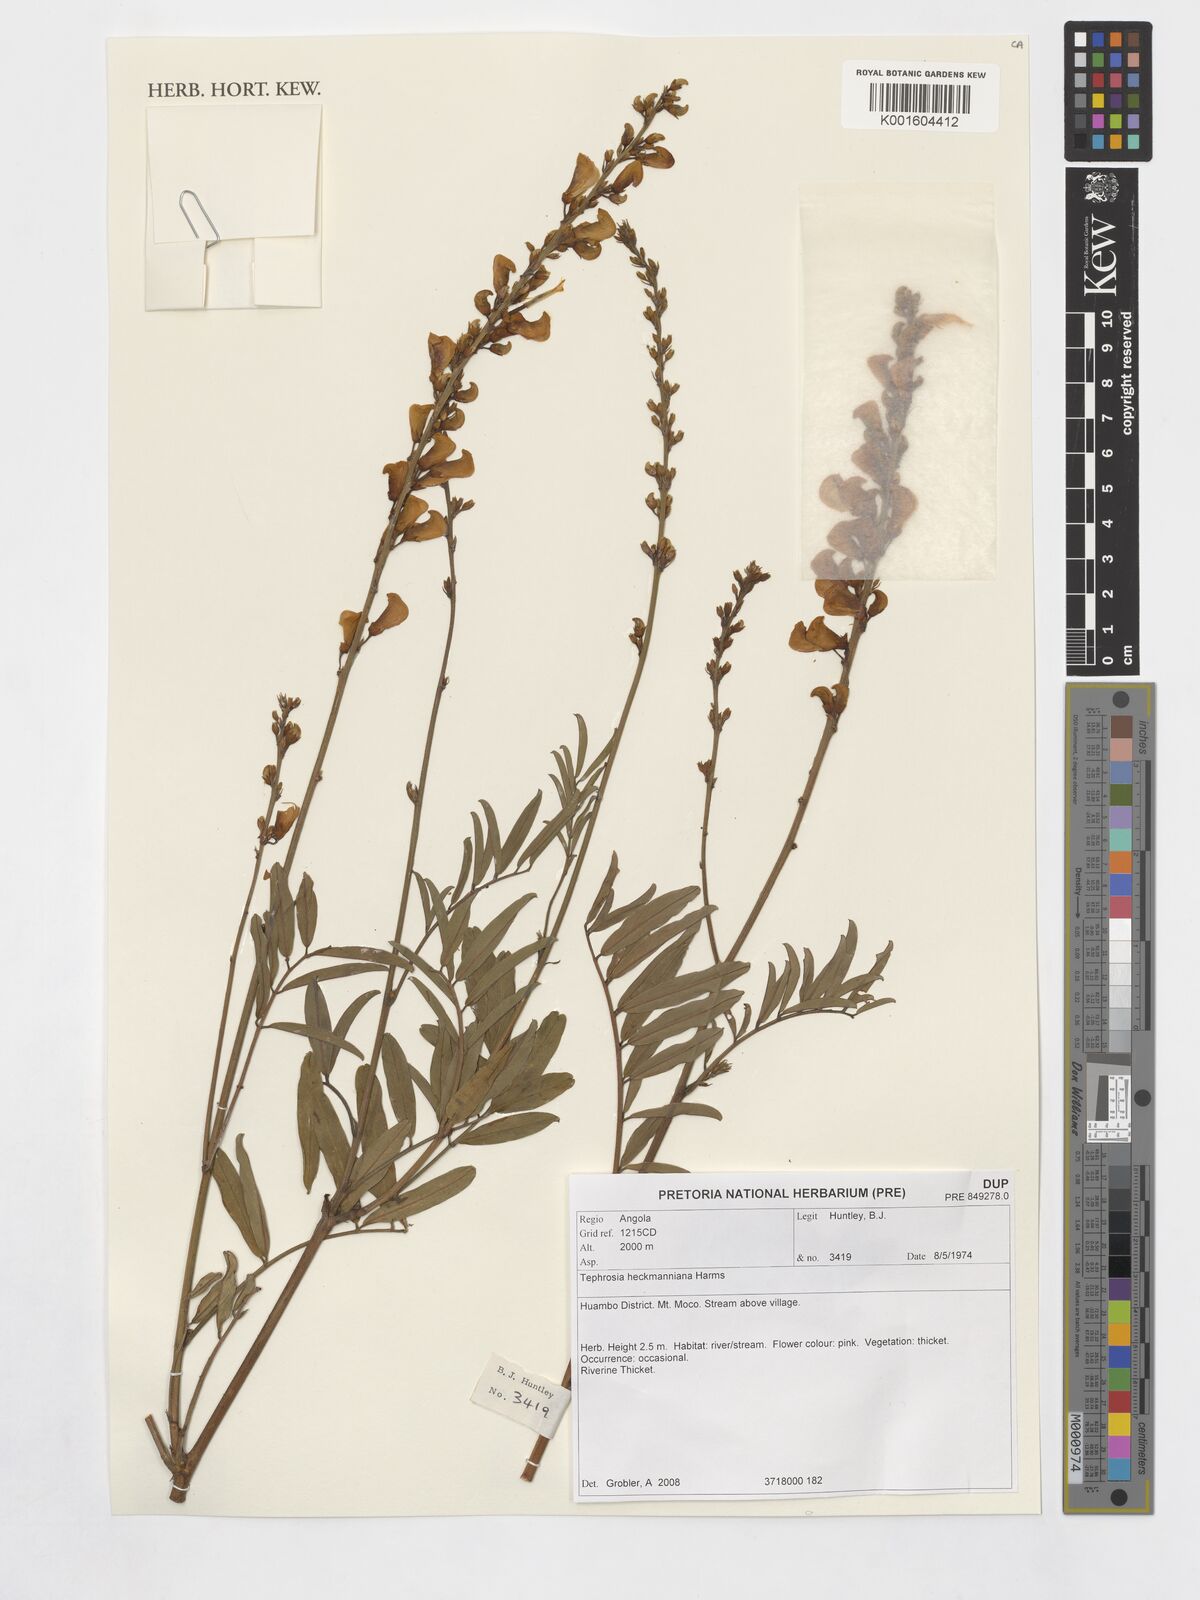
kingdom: Plantae
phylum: Tracheophyta
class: Magnoliopsida
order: Fabales
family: Fabaceae
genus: Tephrosia
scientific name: Tephrosia elata
